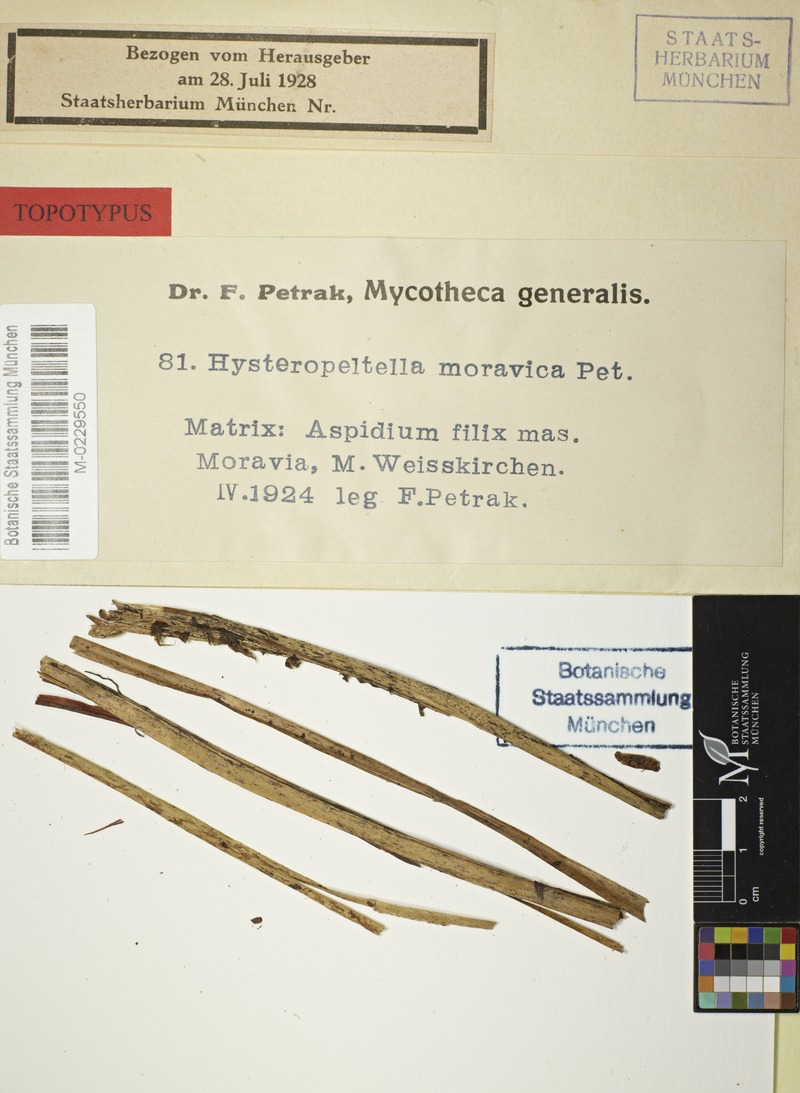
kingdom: Plantae
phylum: Tracheophyta
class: Polypodiopsida
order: Polypodiales
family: Tectariaceae
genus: Tectaria
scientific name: Tectaria Aspidium spec
